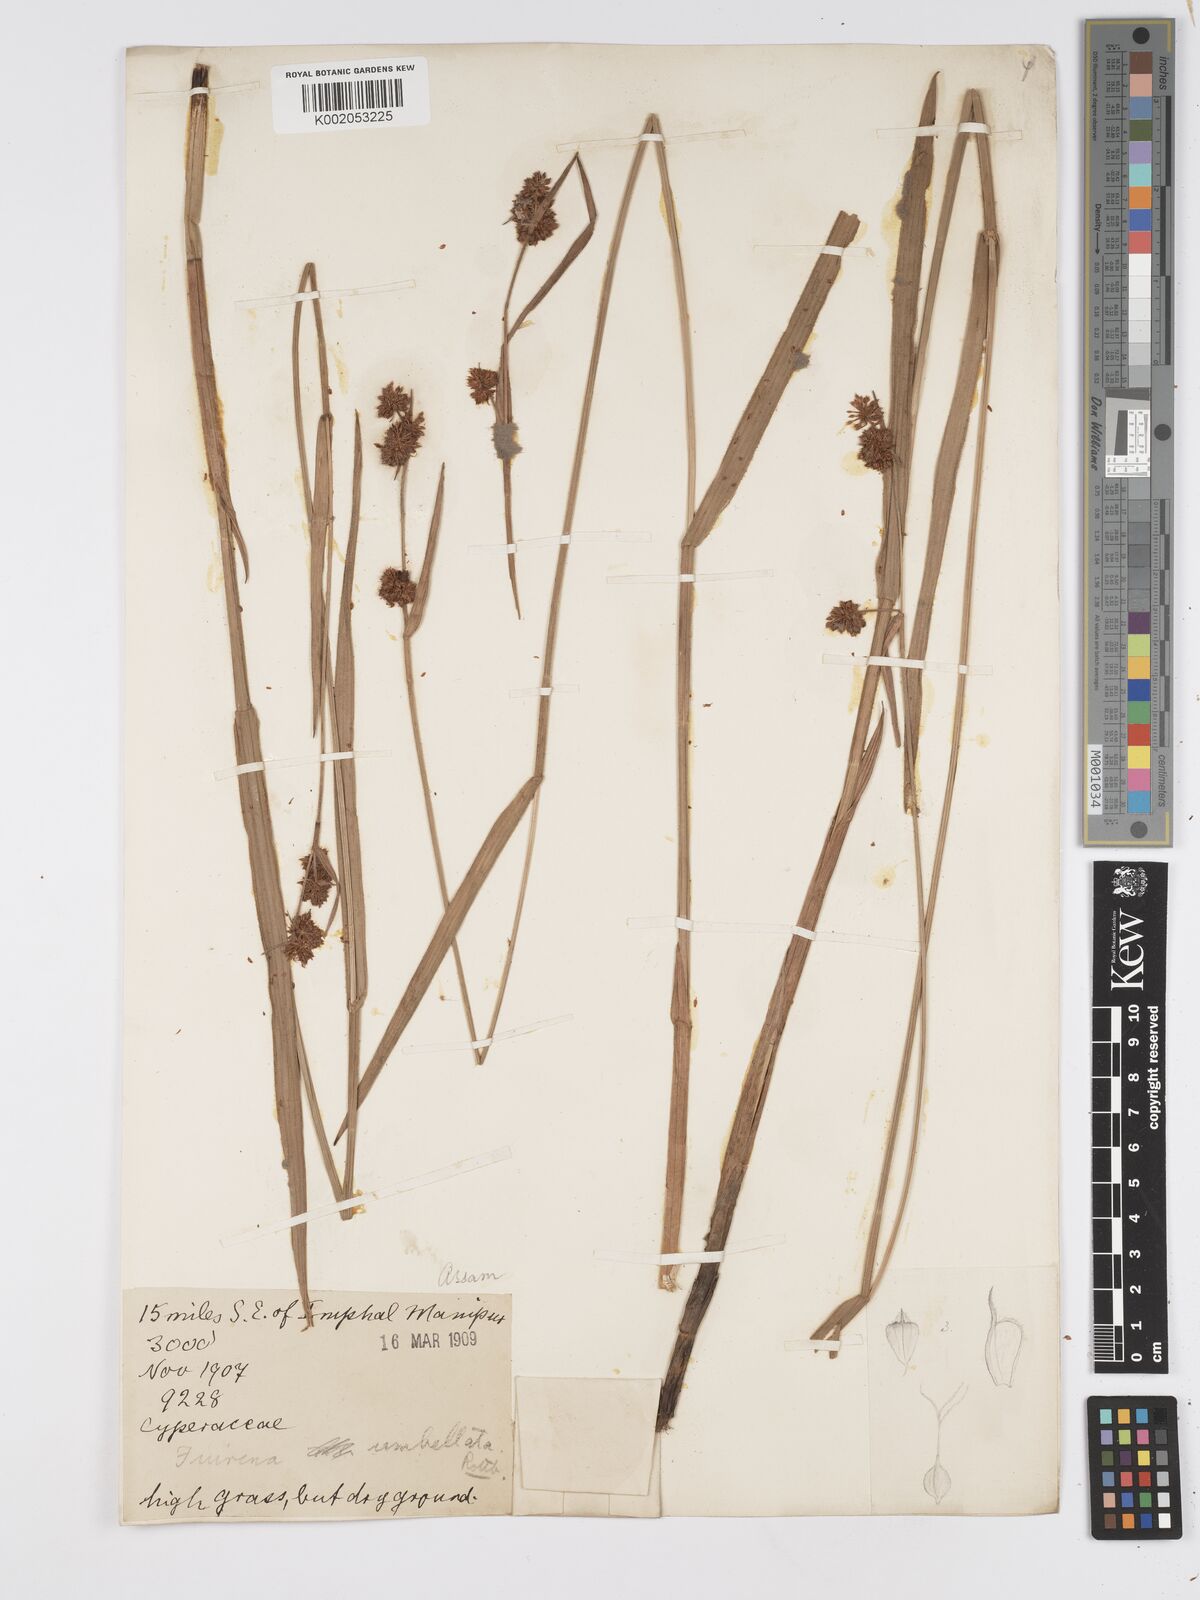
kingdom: Plantae
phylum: Tracheophyta
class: Liliopsida
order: Poales
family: Cyperaceae
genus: Fuirena
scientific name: Fuirena umbellata
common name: Yefen
